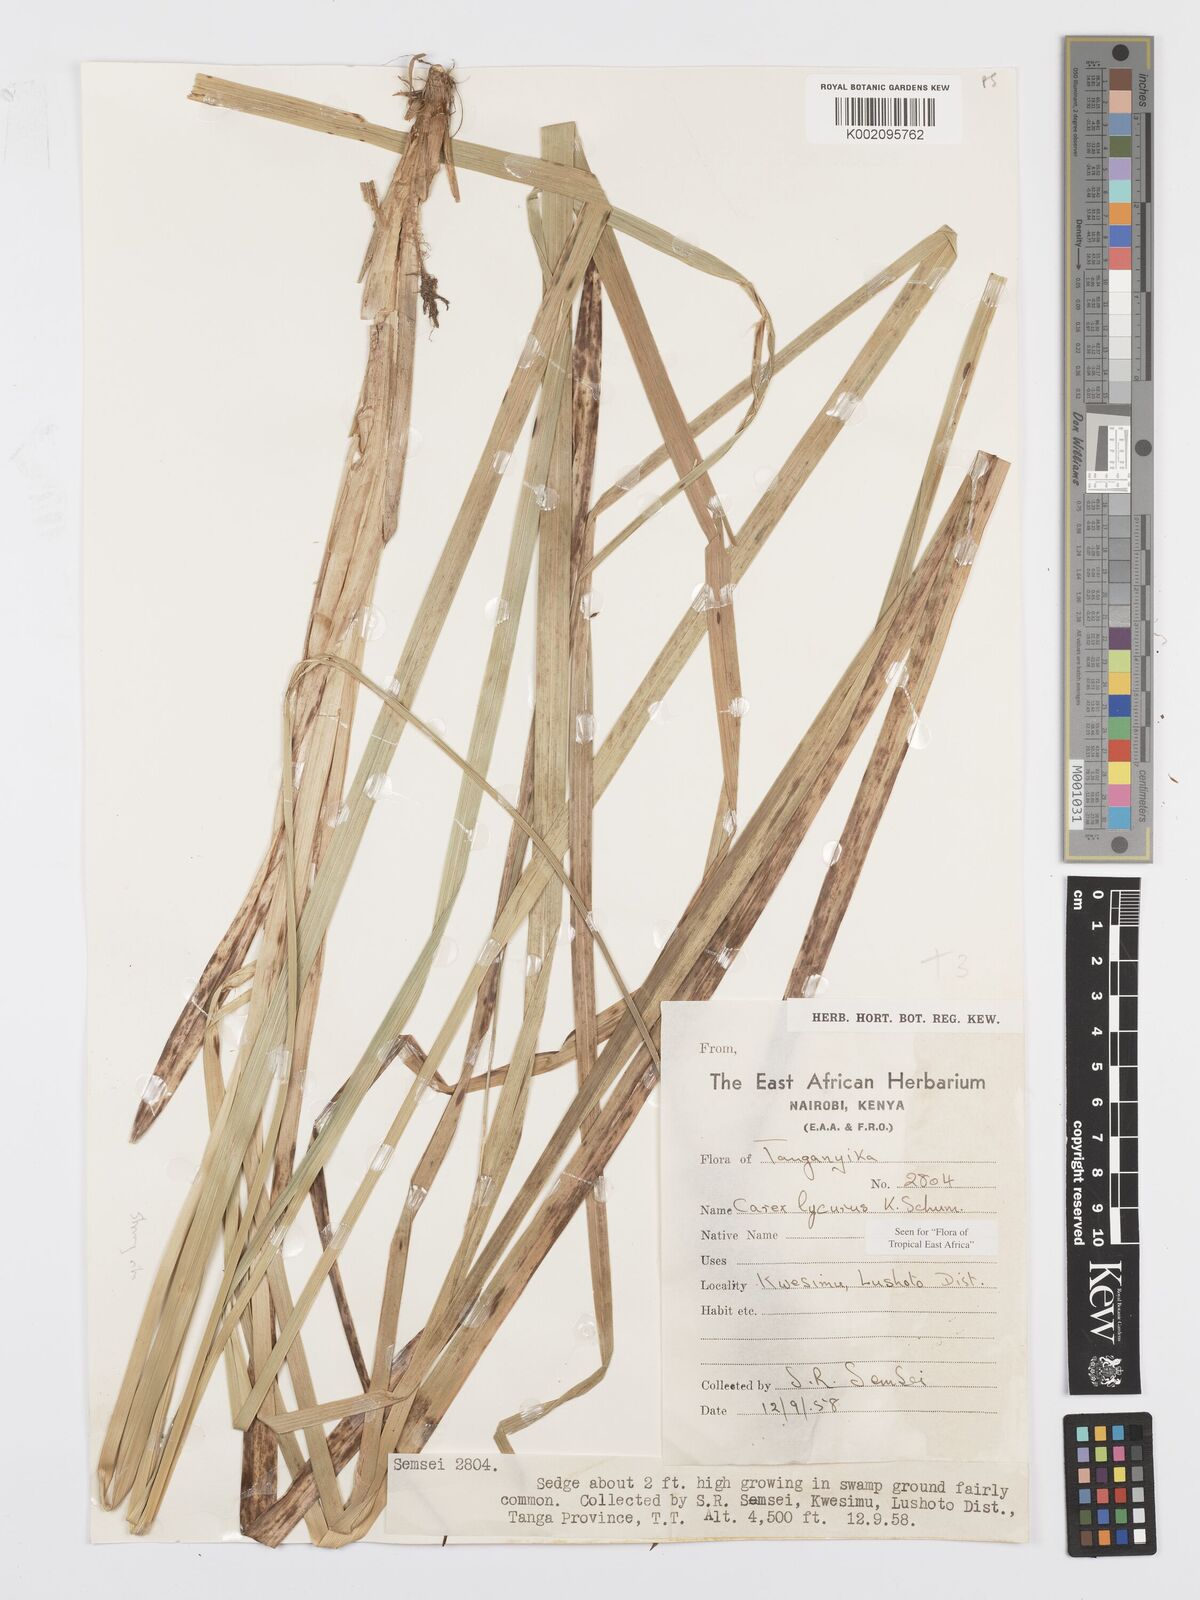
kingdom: Plantae
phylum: Tracheophyta
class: Liliopsida
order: Poales
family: Cyperaceae
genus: Carex
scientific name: Carex lycurus
